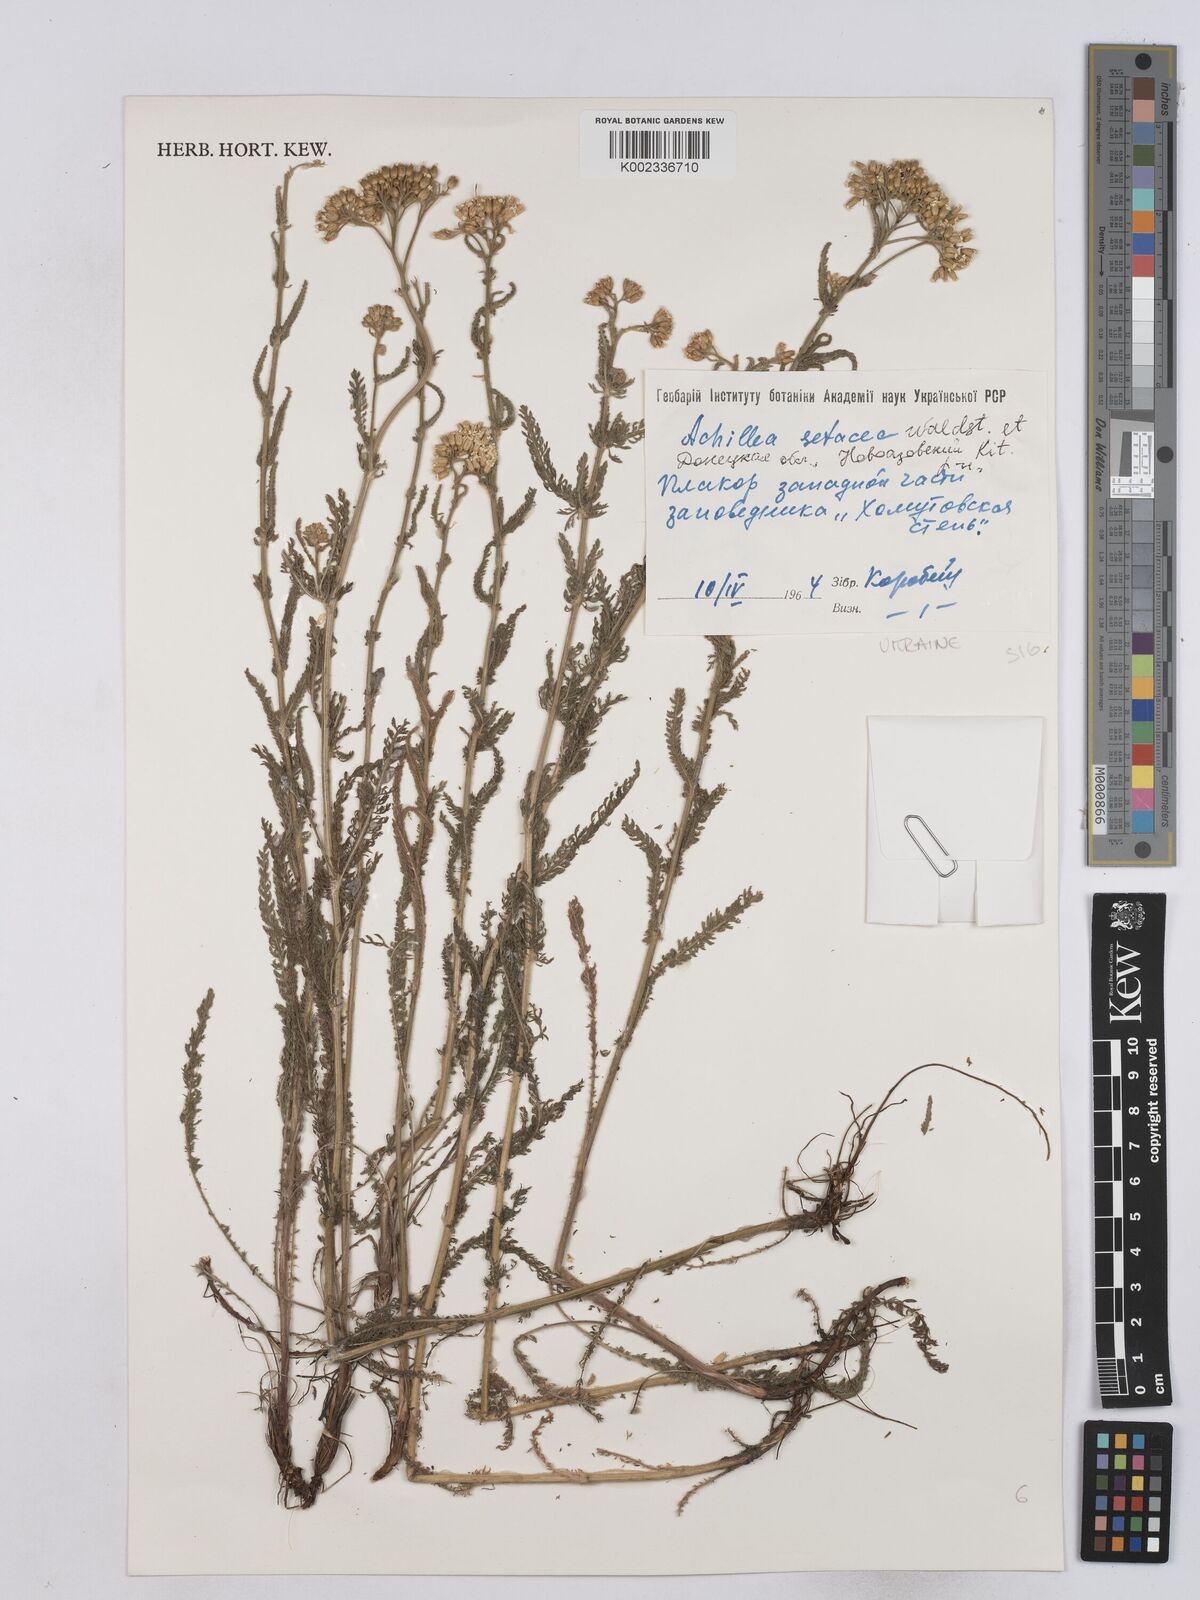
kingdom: Plantae
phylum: Tracheophyta
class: Magnoliopsida
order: Asterales
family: Asteraceae
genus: Achillea
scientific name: Achillea setacea
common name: Bristly yarrow
